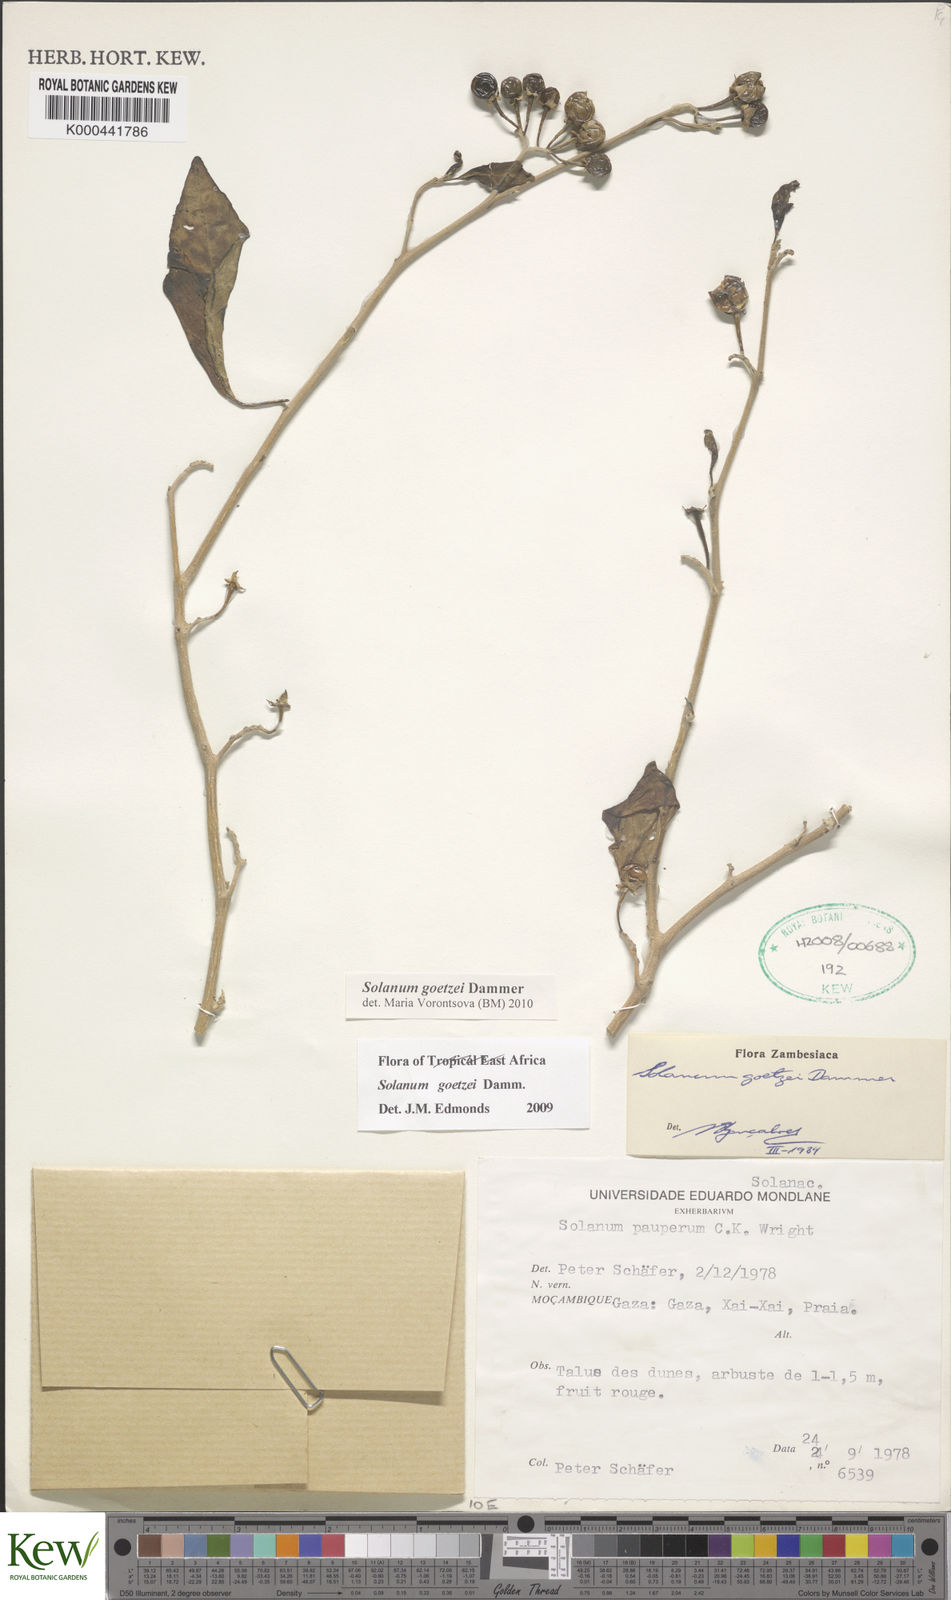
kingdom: Plantae
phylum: Tracheophyta
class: Magnoliopsida
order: Solanales
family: Solanaceae
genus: Solanum
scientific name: Solanum goetzei
